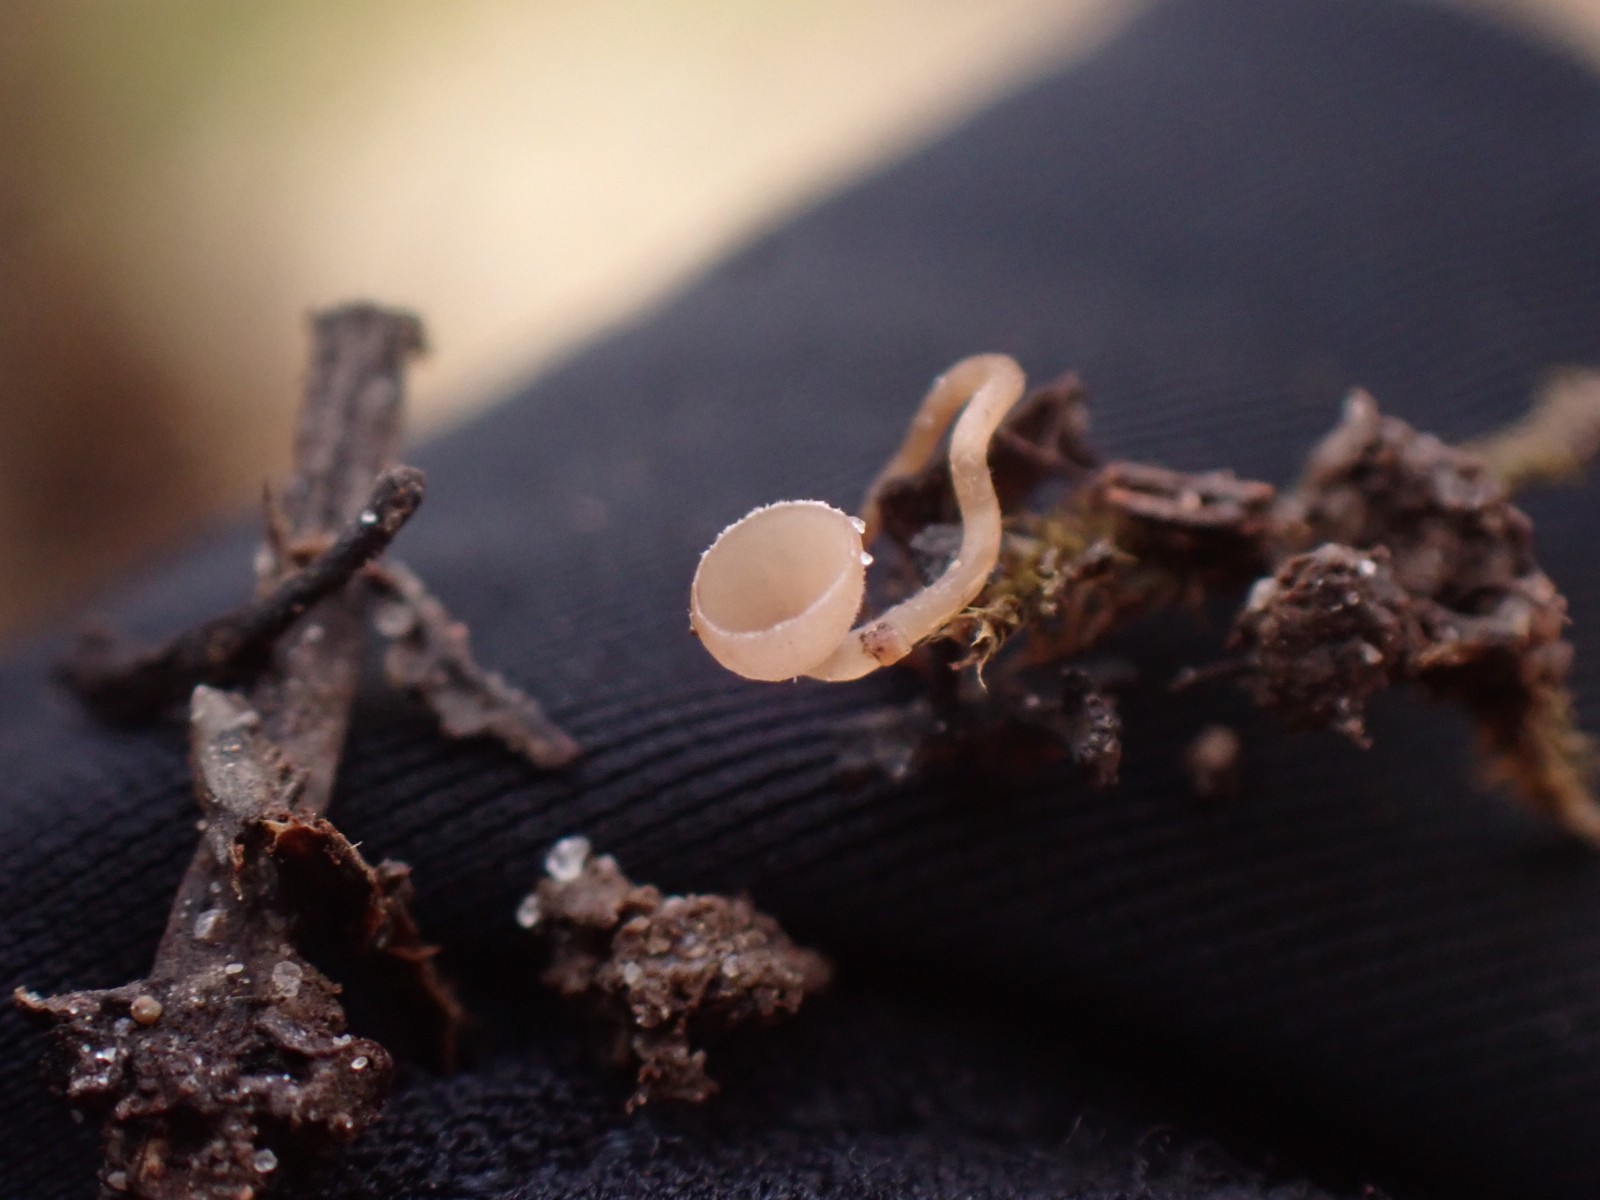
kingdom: Fungi
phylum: Ascomycota
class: Leotiomycetes
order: Helotiales
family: Sclerotiniaceae
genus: Ciboria
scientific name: Ciboria amentacea
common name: ellerakle-knoldskive
